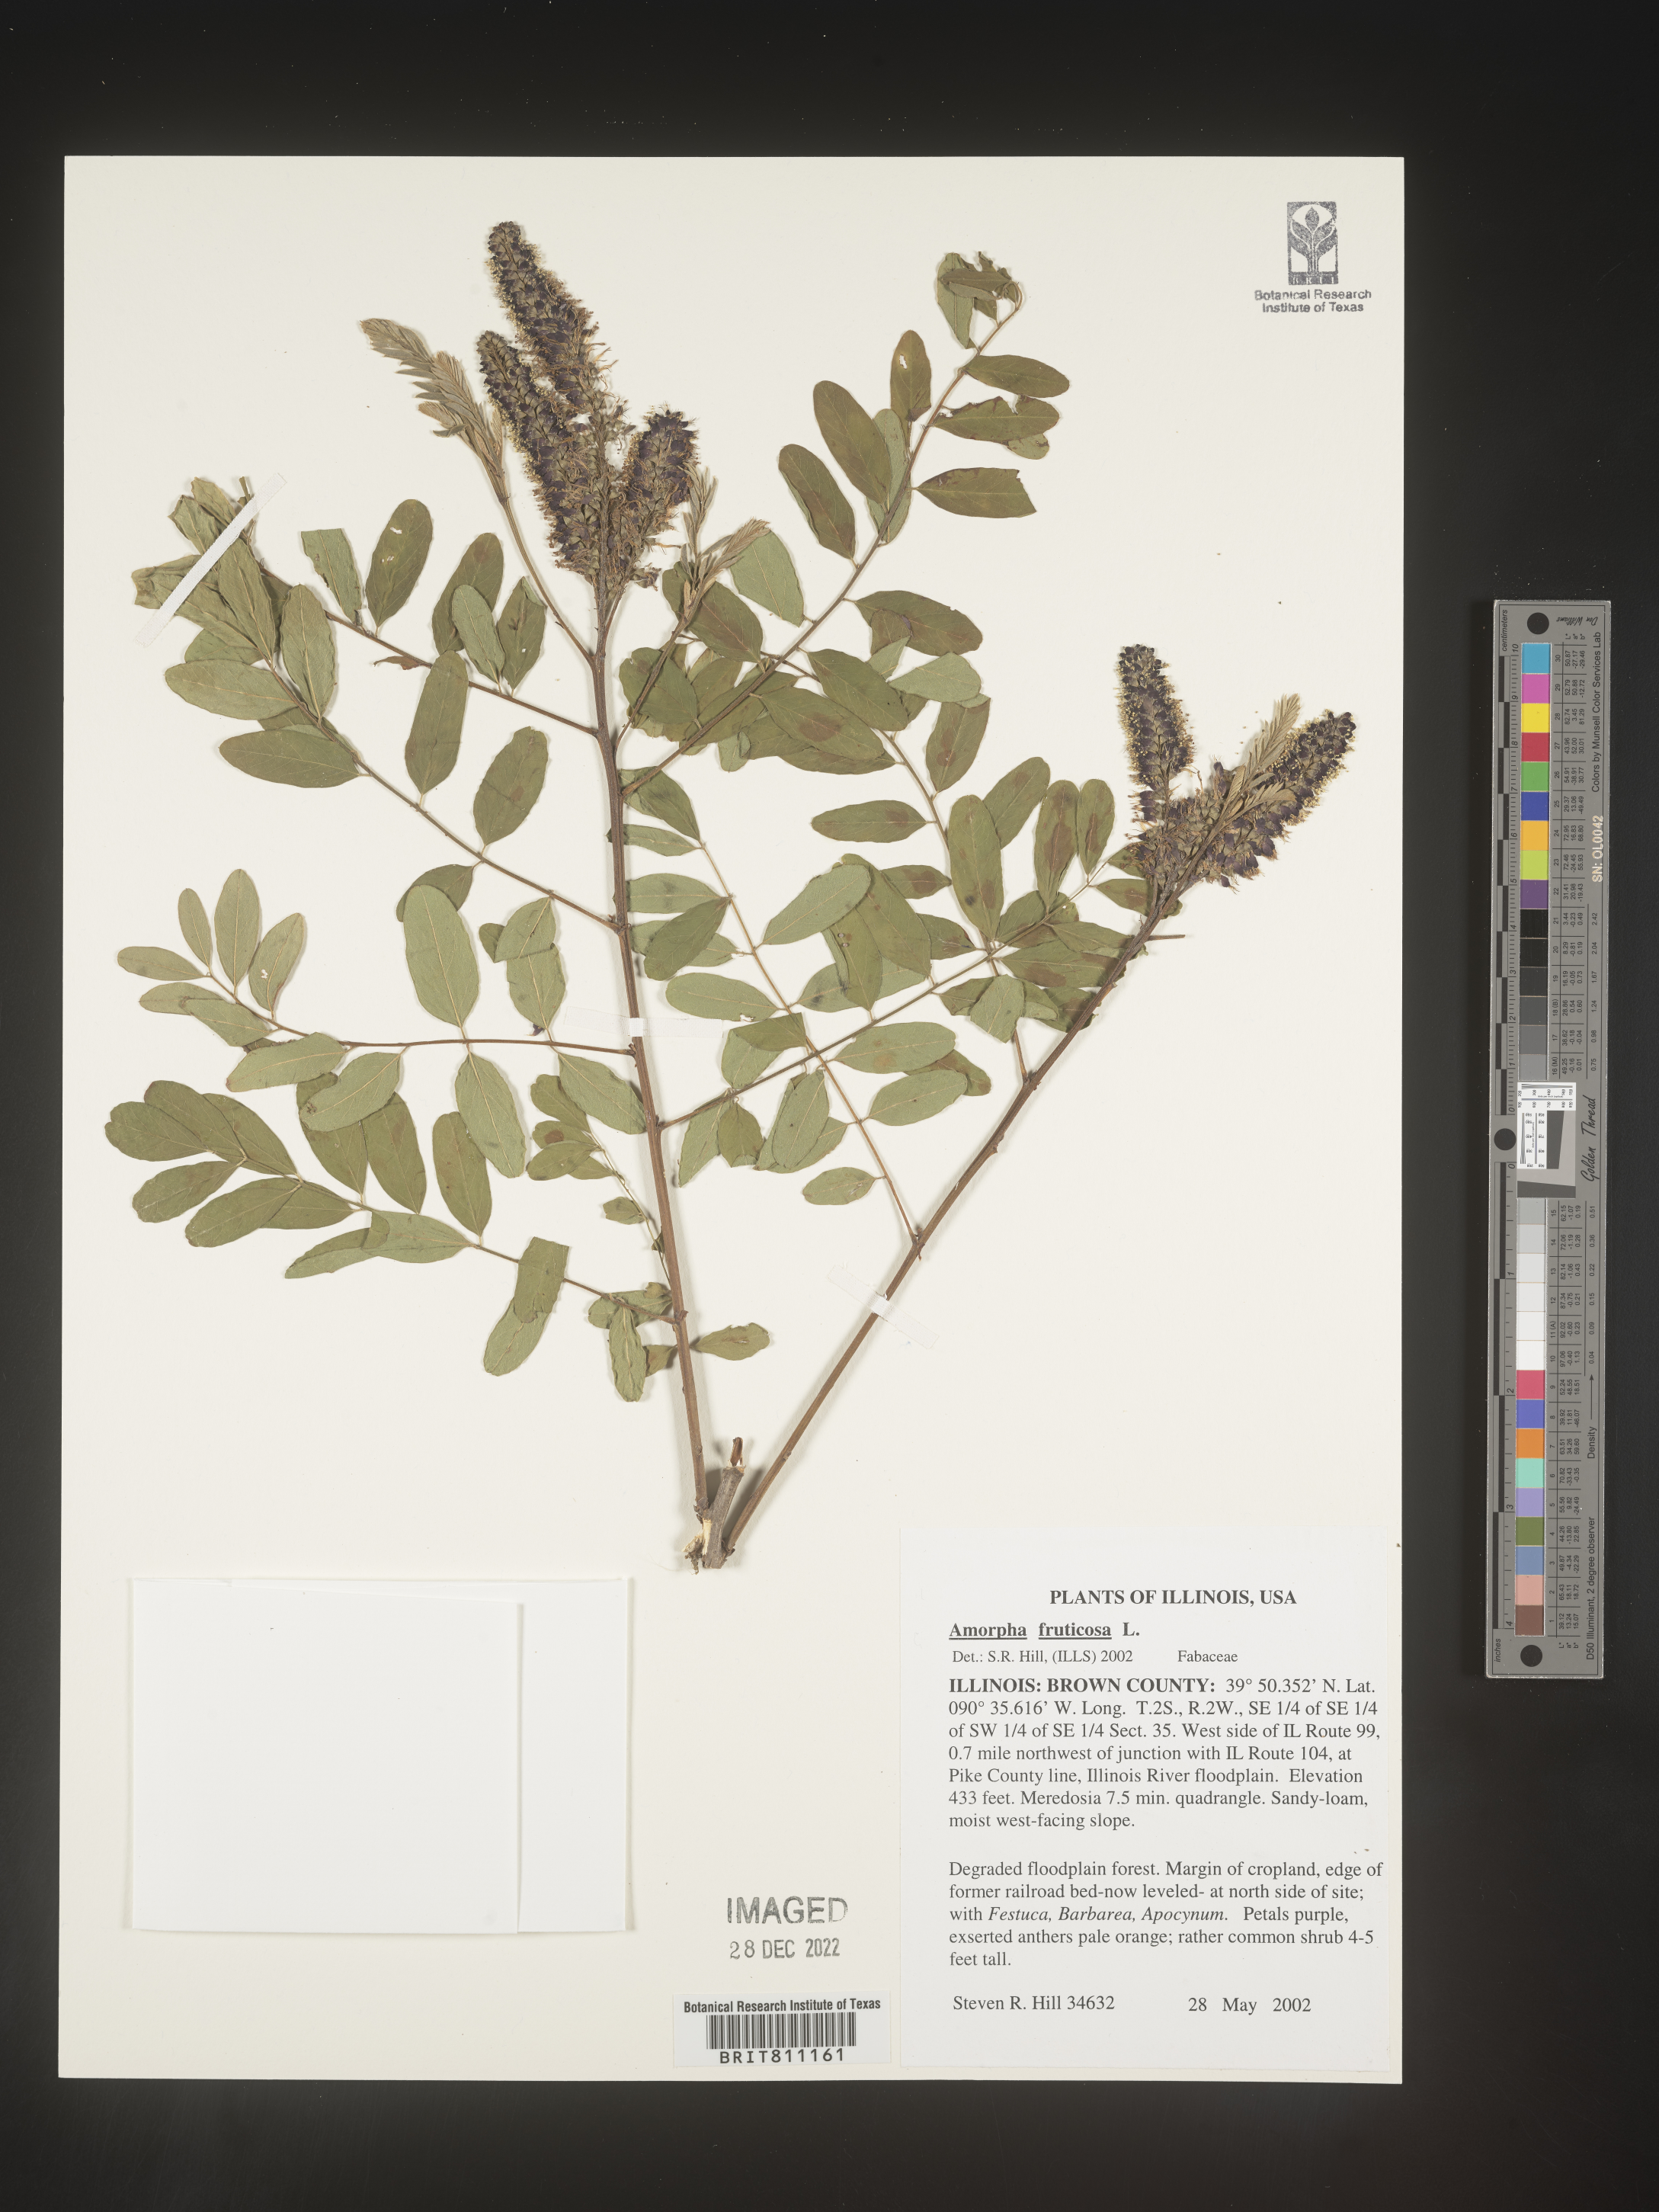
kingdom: Plantae
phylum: Tracheophyta
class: Magnoliopsida
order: Fabales
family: Fabaceae
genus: Amorpha
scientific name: Amorpha fruticosa
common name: False indigo
